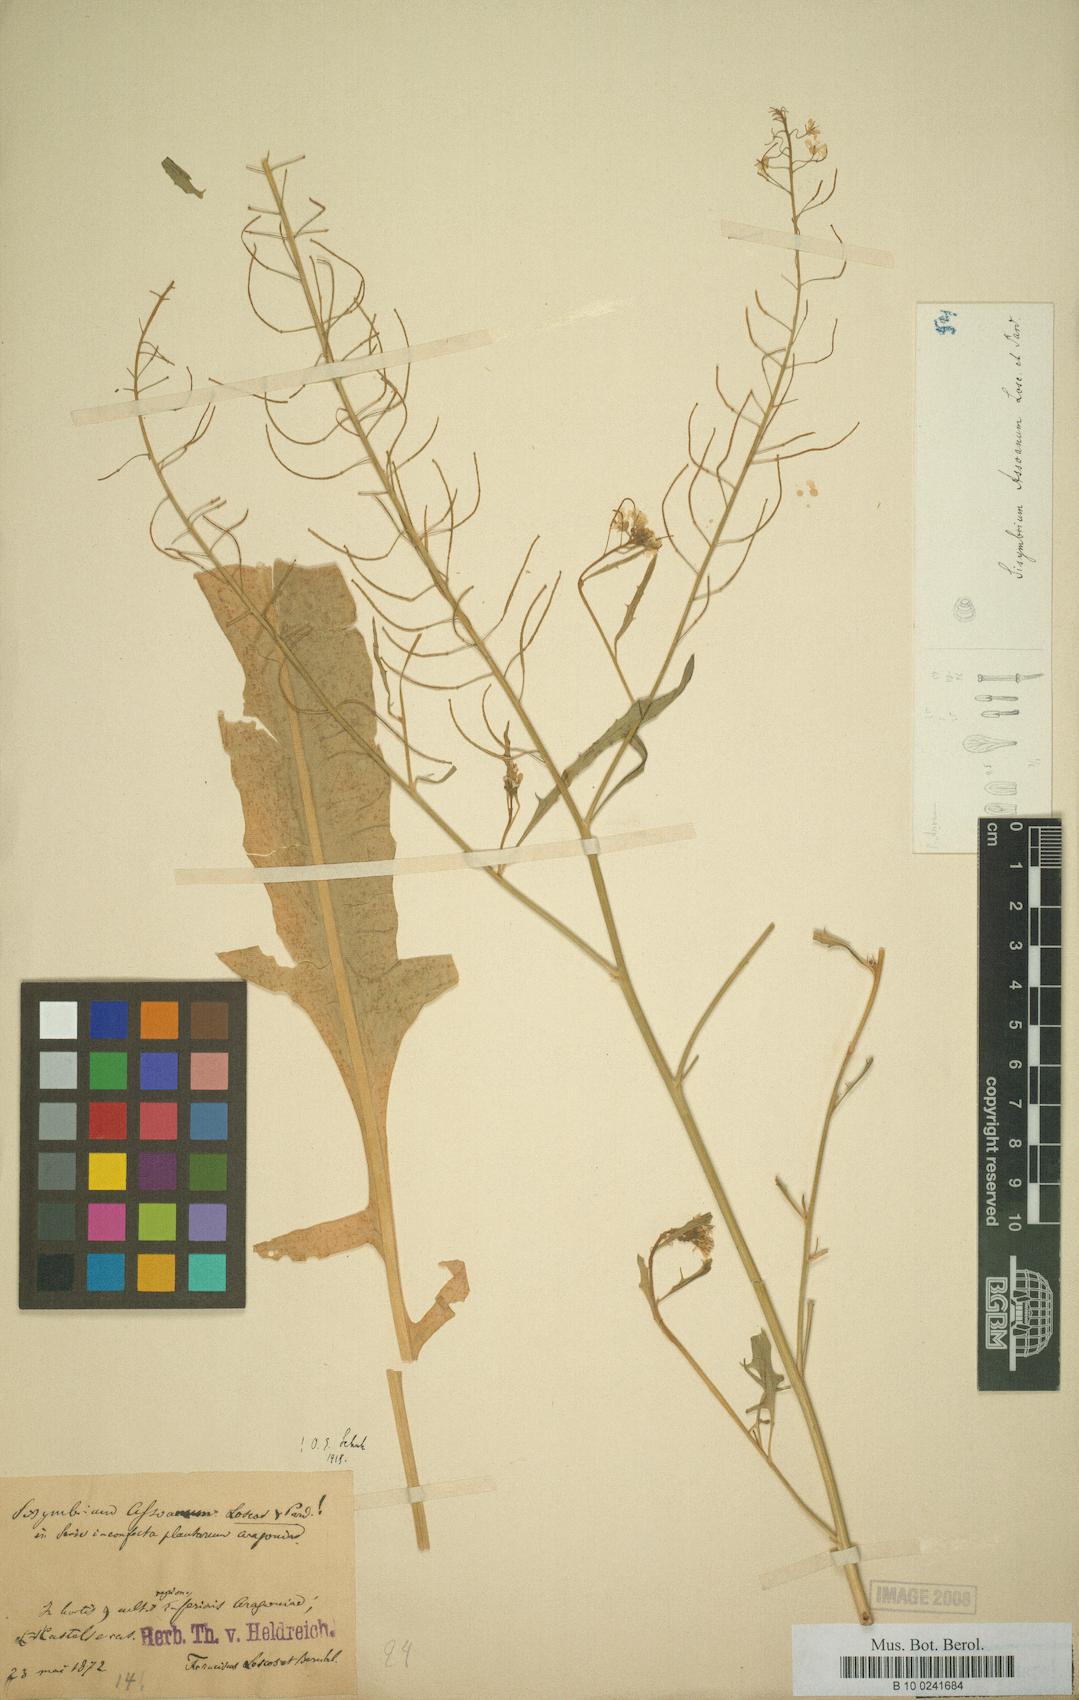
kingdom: Plantae
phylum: Tracheophyta
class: Magnoliopsida
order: Brassicales
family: Brassicaceae
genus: Sisymbrium
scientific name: Sisymbrium assoanum
